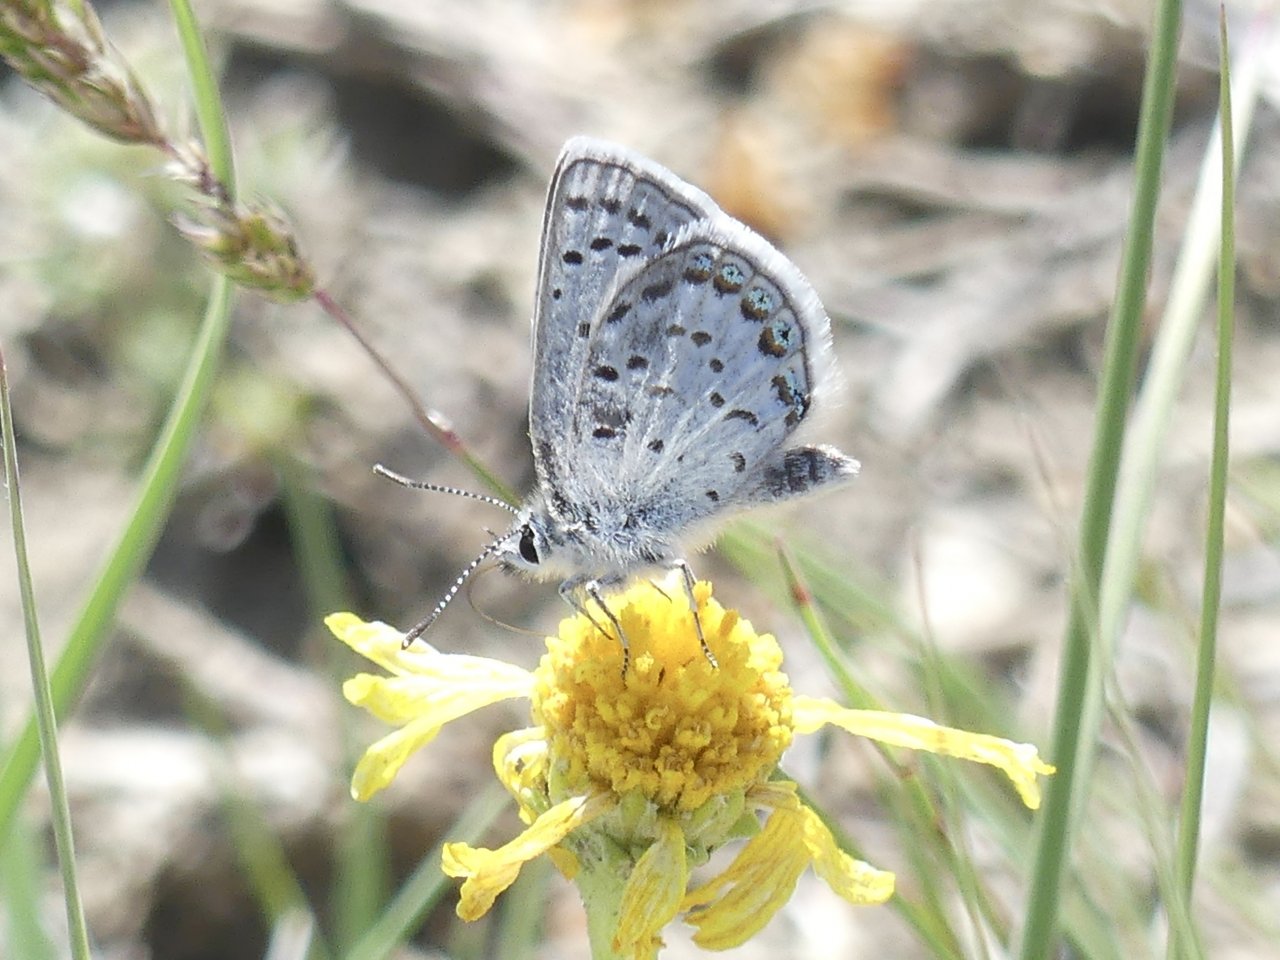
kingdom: Animalia
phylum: Arthropoda
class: Insecta
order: Lepidoptera
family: Lycaenidae
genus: Plebejus
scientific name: Plebejus shasta
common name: Shasta Blue
